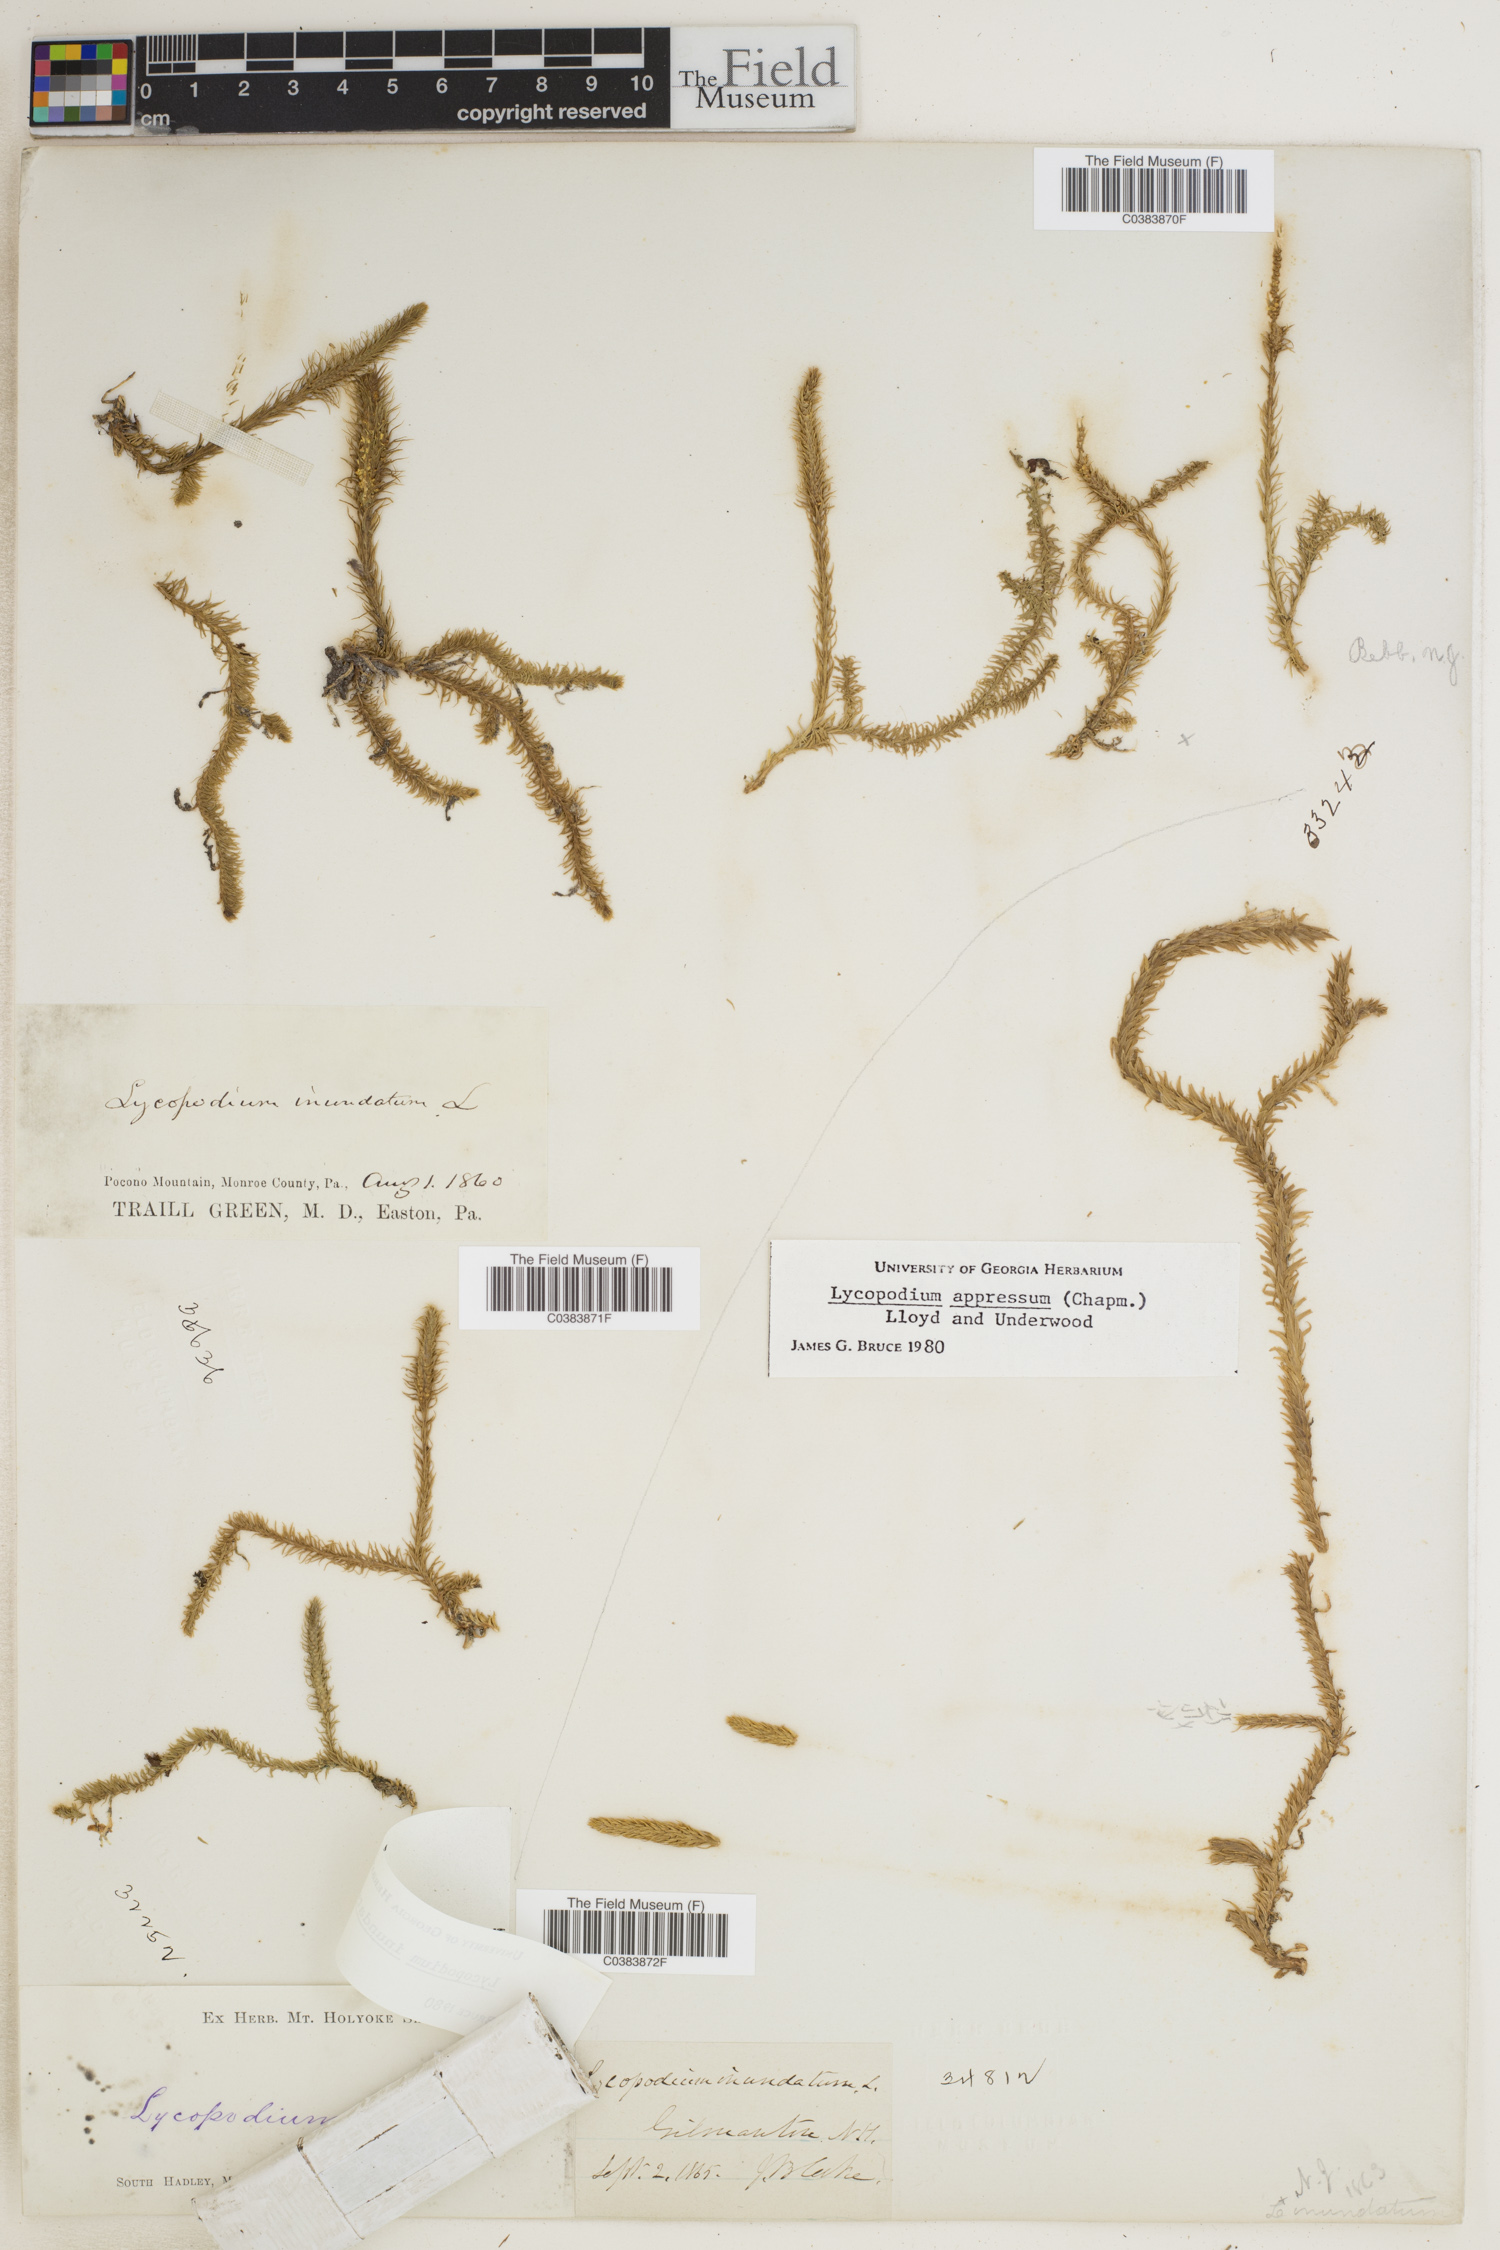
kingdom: Plantae
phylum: Tracheophyta
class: Lycopodiopsida
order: Lycopodiales
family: Lycopodiaceae
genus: Lycopodiella
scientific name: Lycopodiella inundata
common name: Marsh clubmoss
